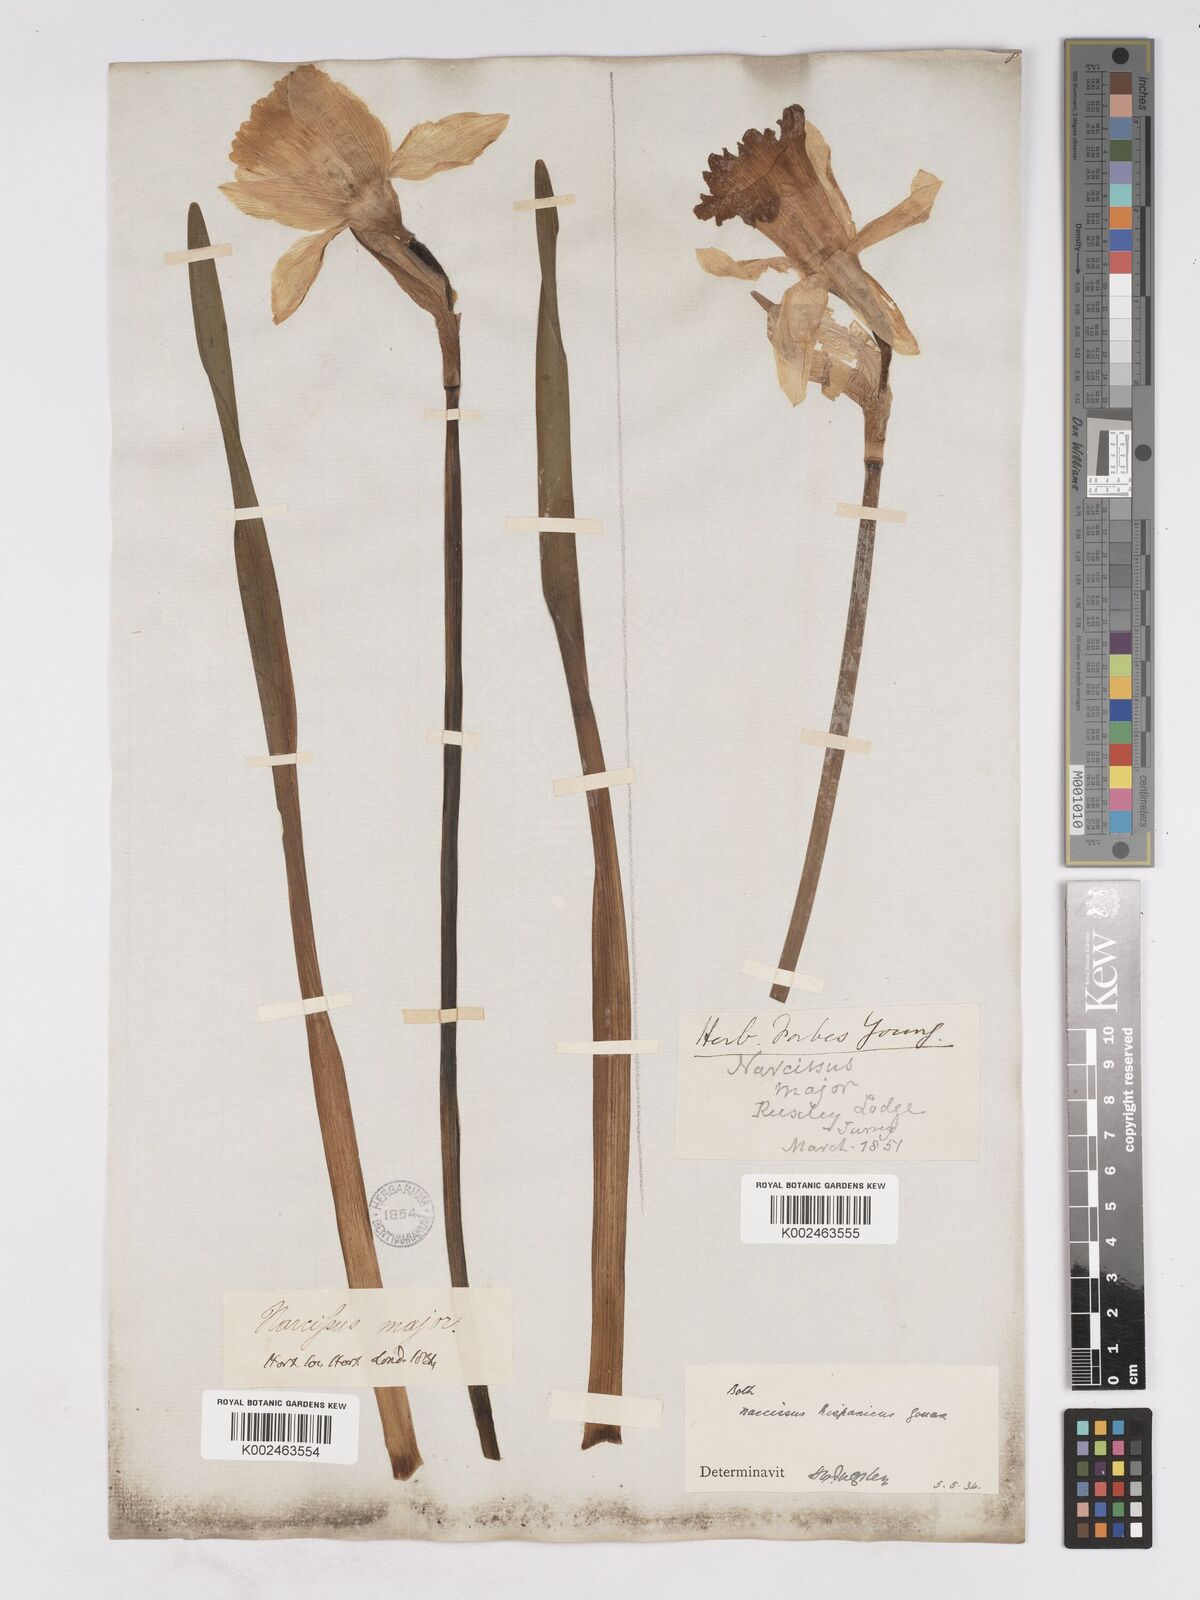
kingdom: Plantae
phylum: Tracheophyta
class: Liliopsida
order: Asparagales
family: Amaryllidaceae
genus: Narcissus
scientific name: Narcissus hispanicus
